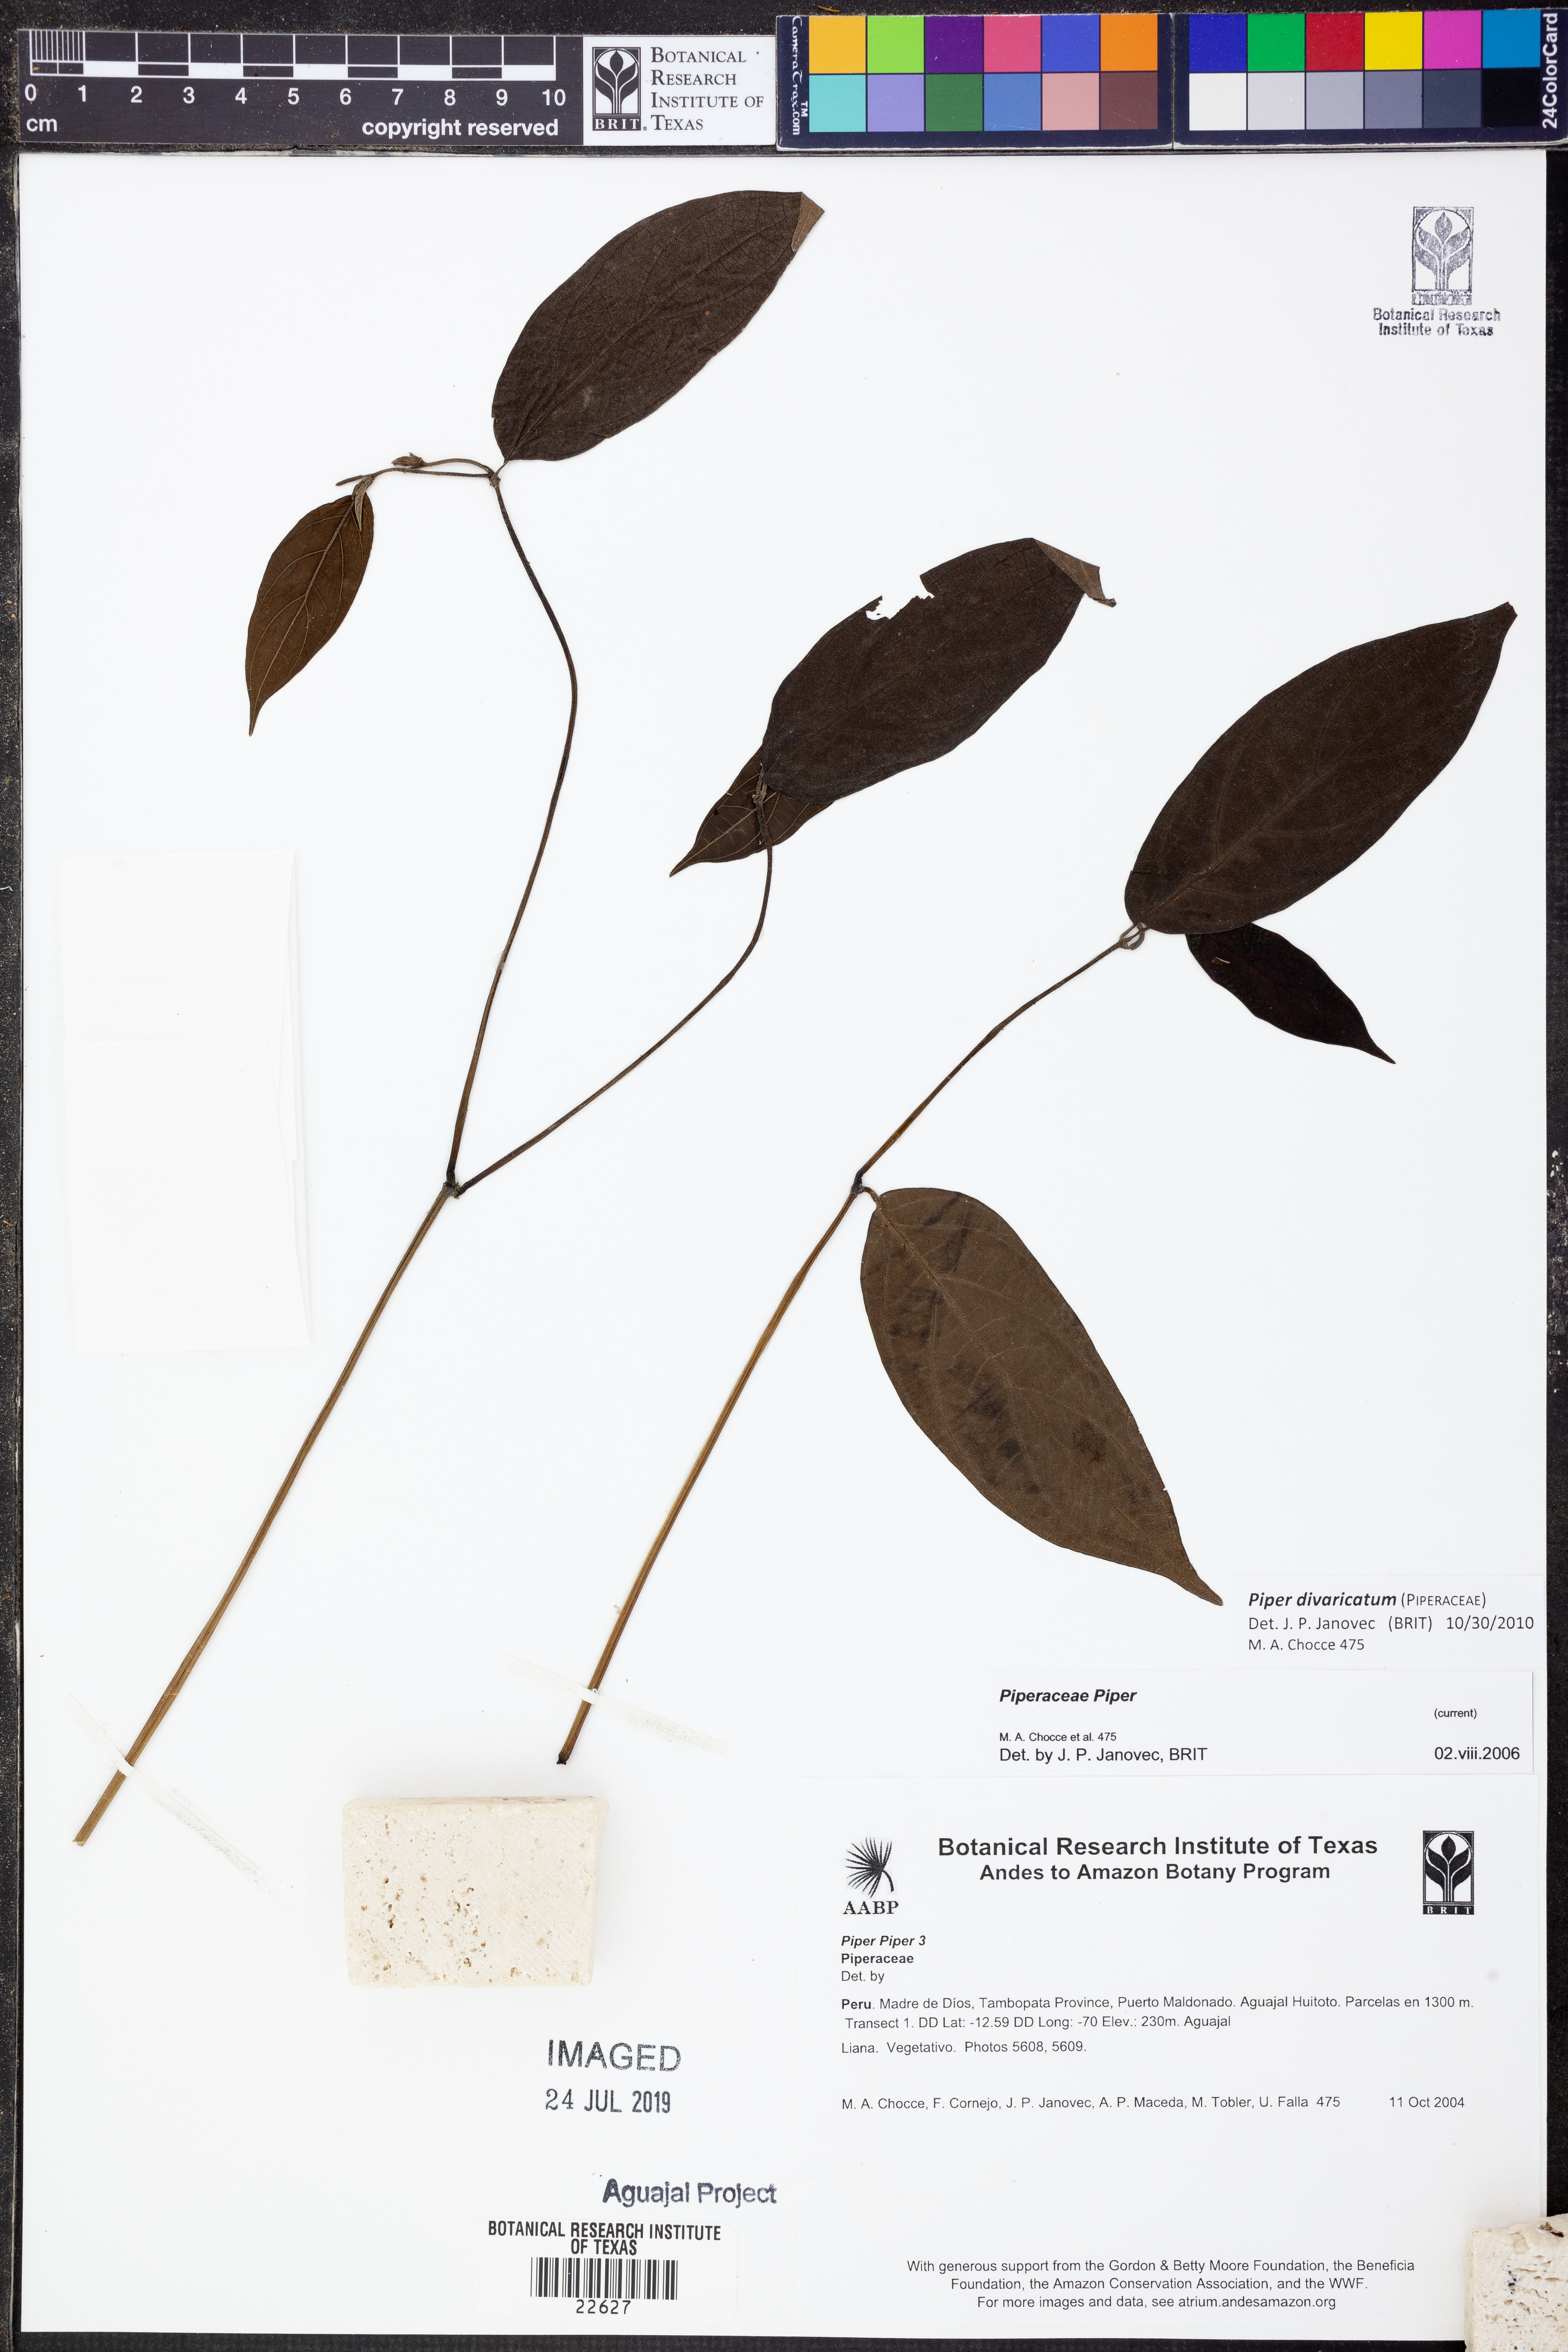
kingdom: Plantae
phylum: Tracheophyta
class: Magnoliopsida
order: Piperales
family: Piperaceae
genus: Piper
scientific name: Piper divaricatum
